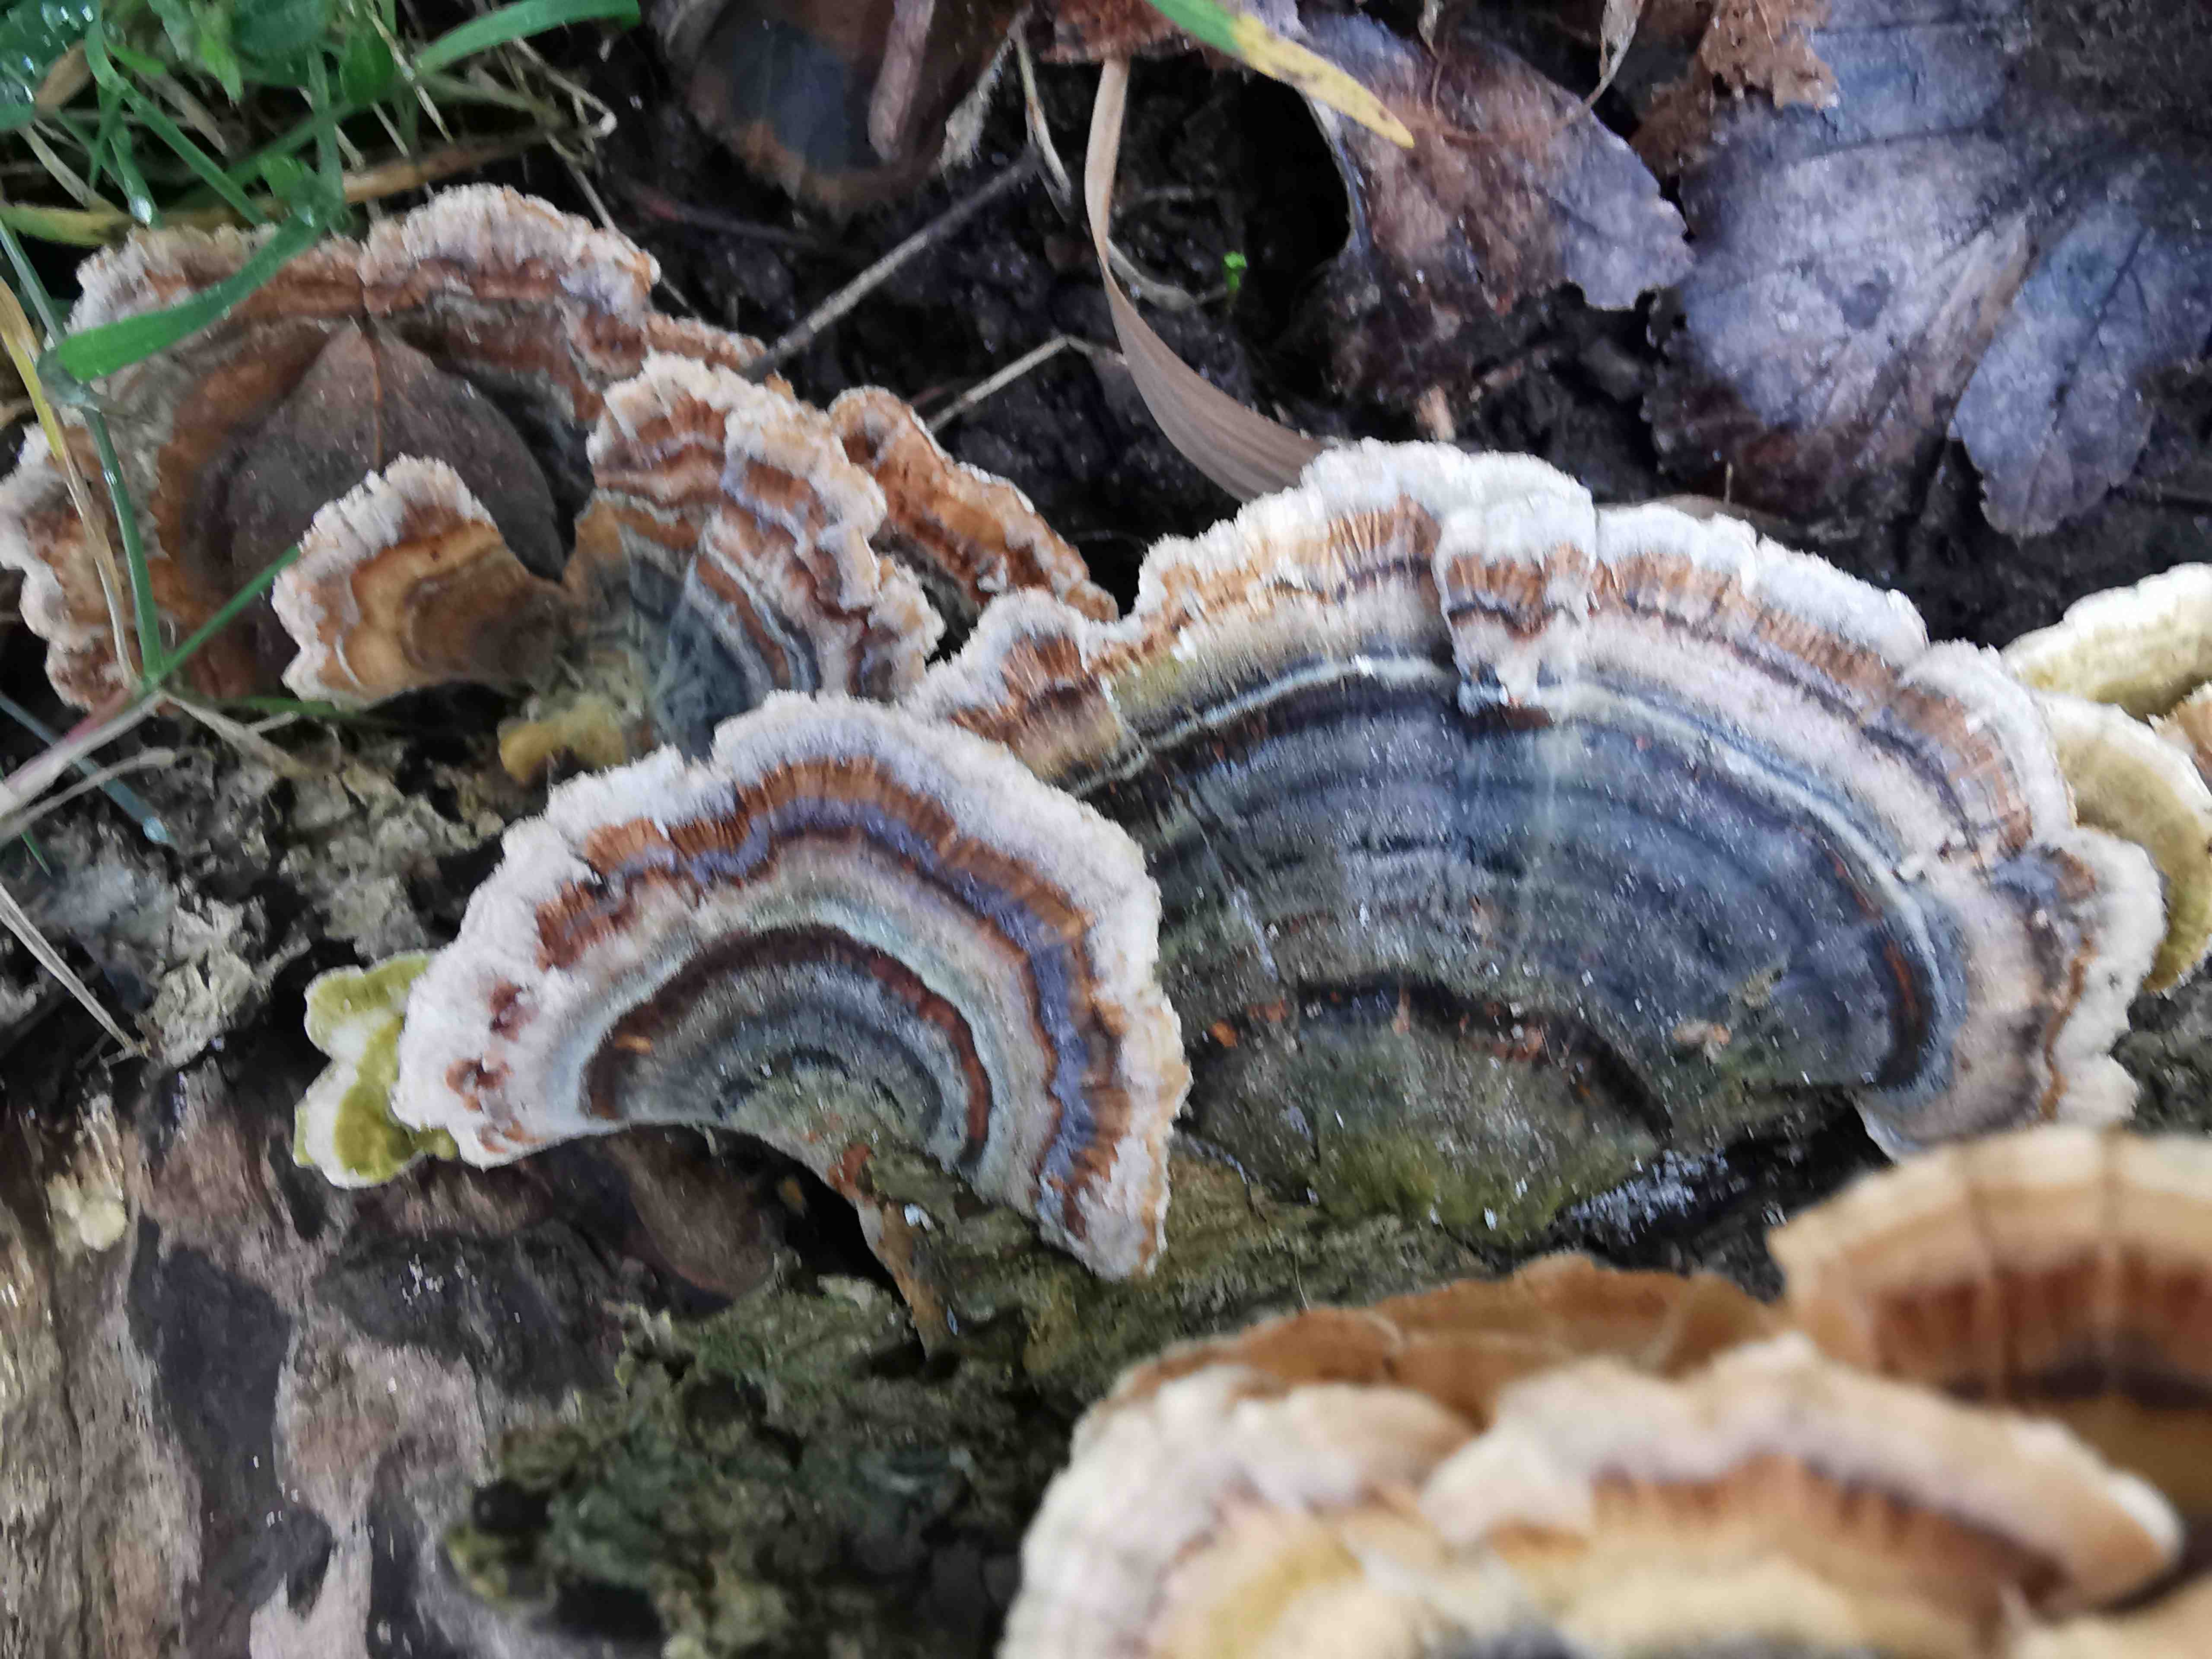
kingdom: Fungi
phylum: Basidiomycota
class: Agaricomycetes
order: Polyporales
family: Polyporaceae
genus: Trametes
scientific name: Trametes versicolor
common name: broget læderporesvamp
